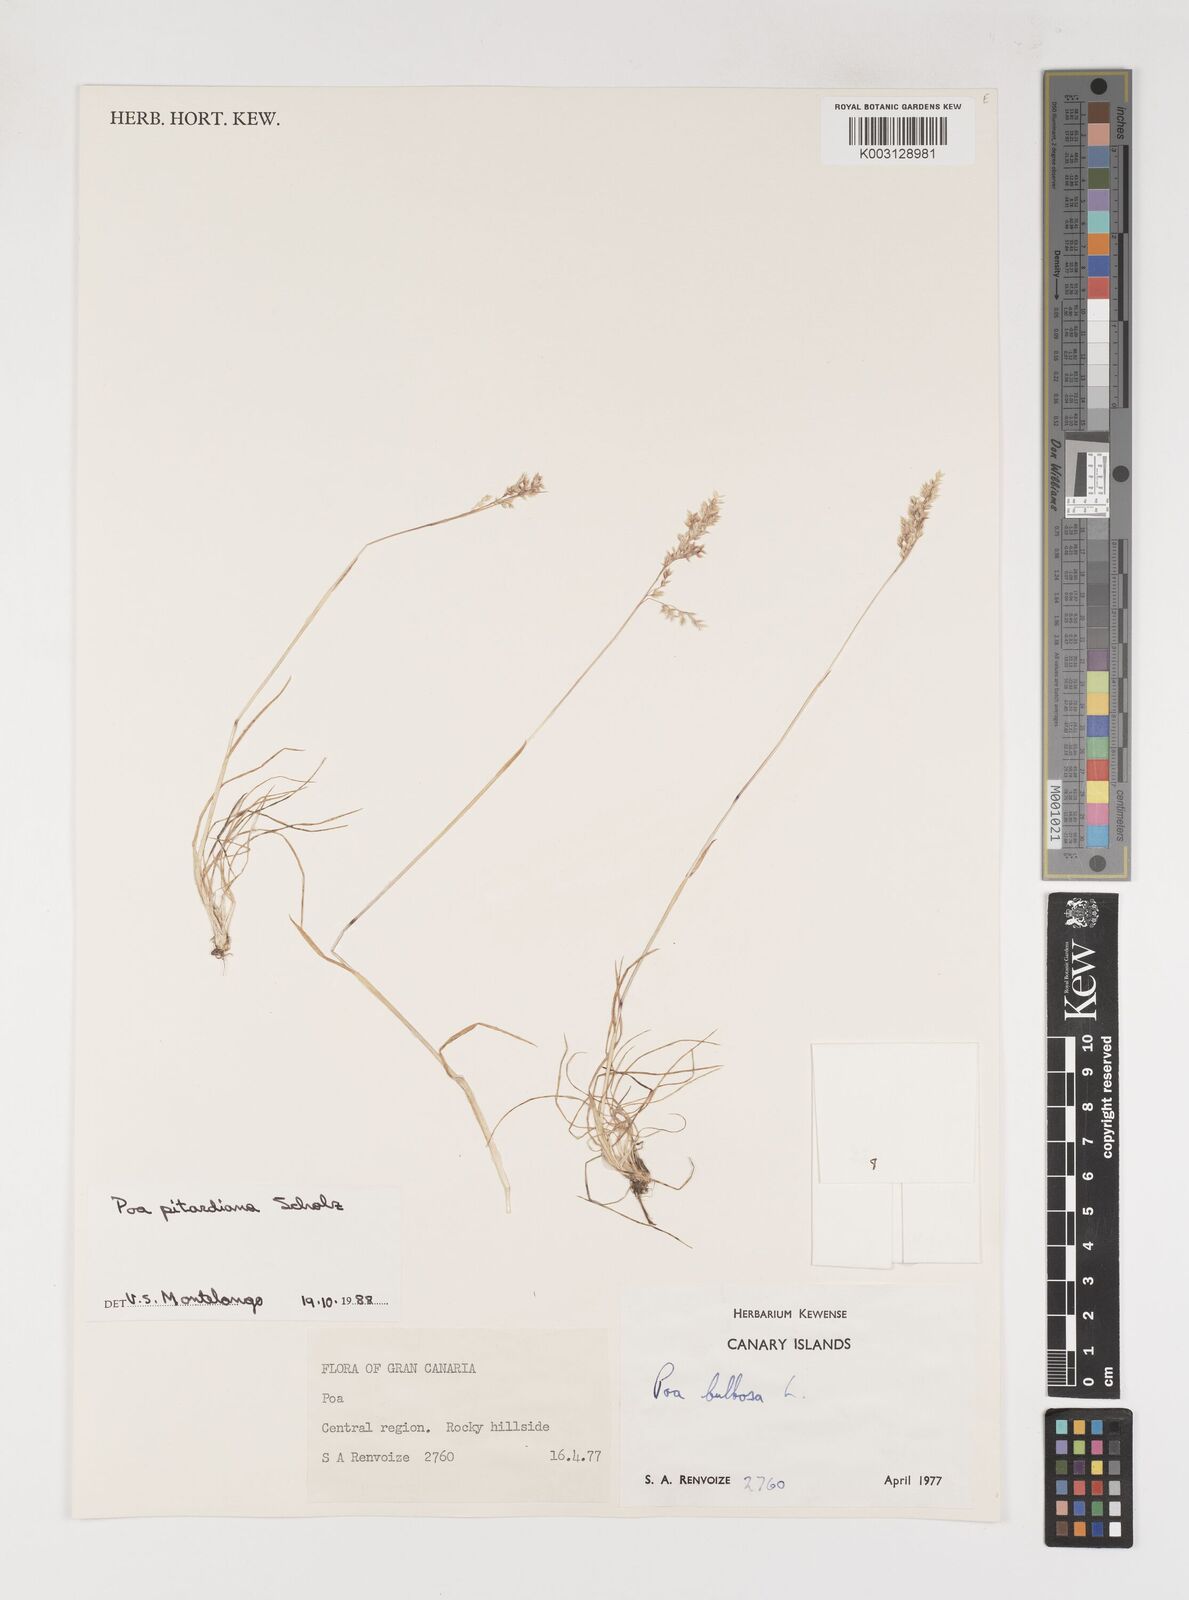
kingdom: Plantae
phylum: Tracheophyta
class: Liliopsida
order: Poales
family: Poaceae
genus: Poa
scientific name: Poa pitardiana
